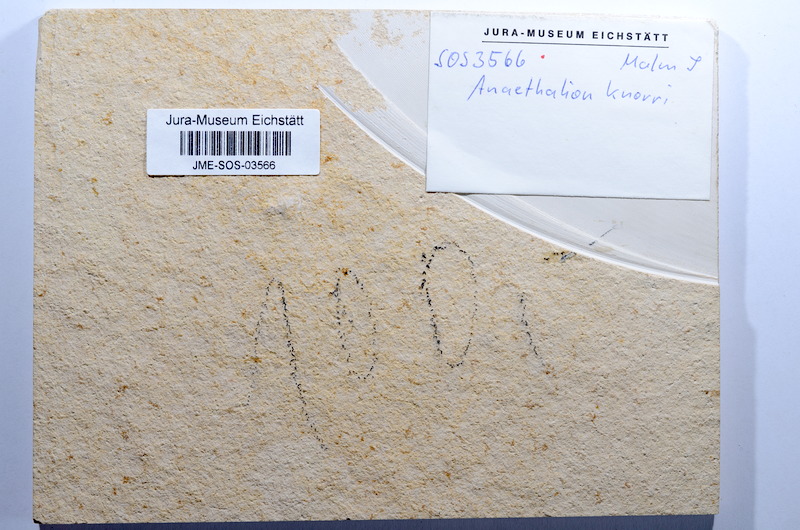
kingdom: Animalia
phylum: Chordata
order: Elopiformes
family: Anaethalionidae
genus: Anaethalion
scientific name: Anaethalion knorri
